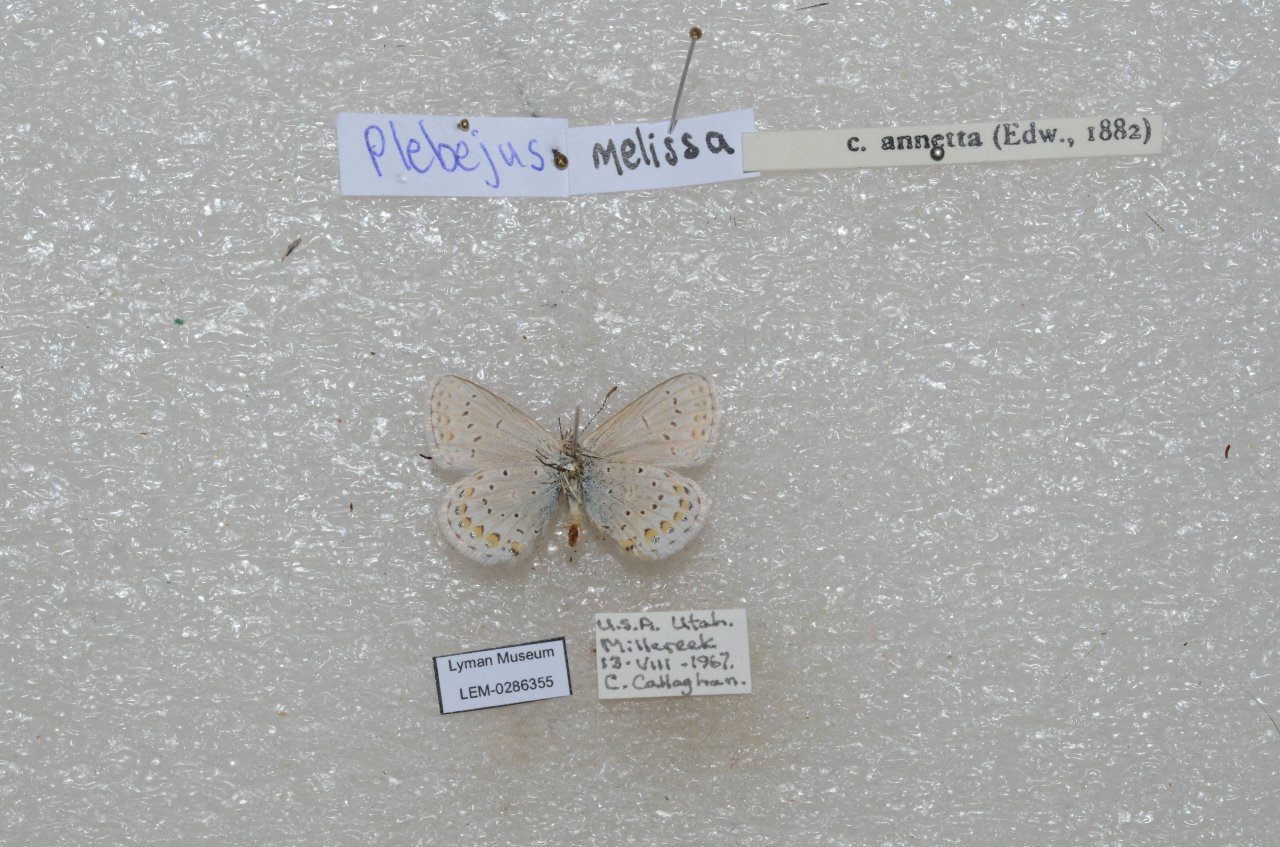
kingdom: Animalia
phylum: Arthropoda
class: Insecta
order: Lepidoptera
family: Lycaenidae
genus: Lycaeides
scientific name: Lycaeides melissa
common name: Melissa Blue
